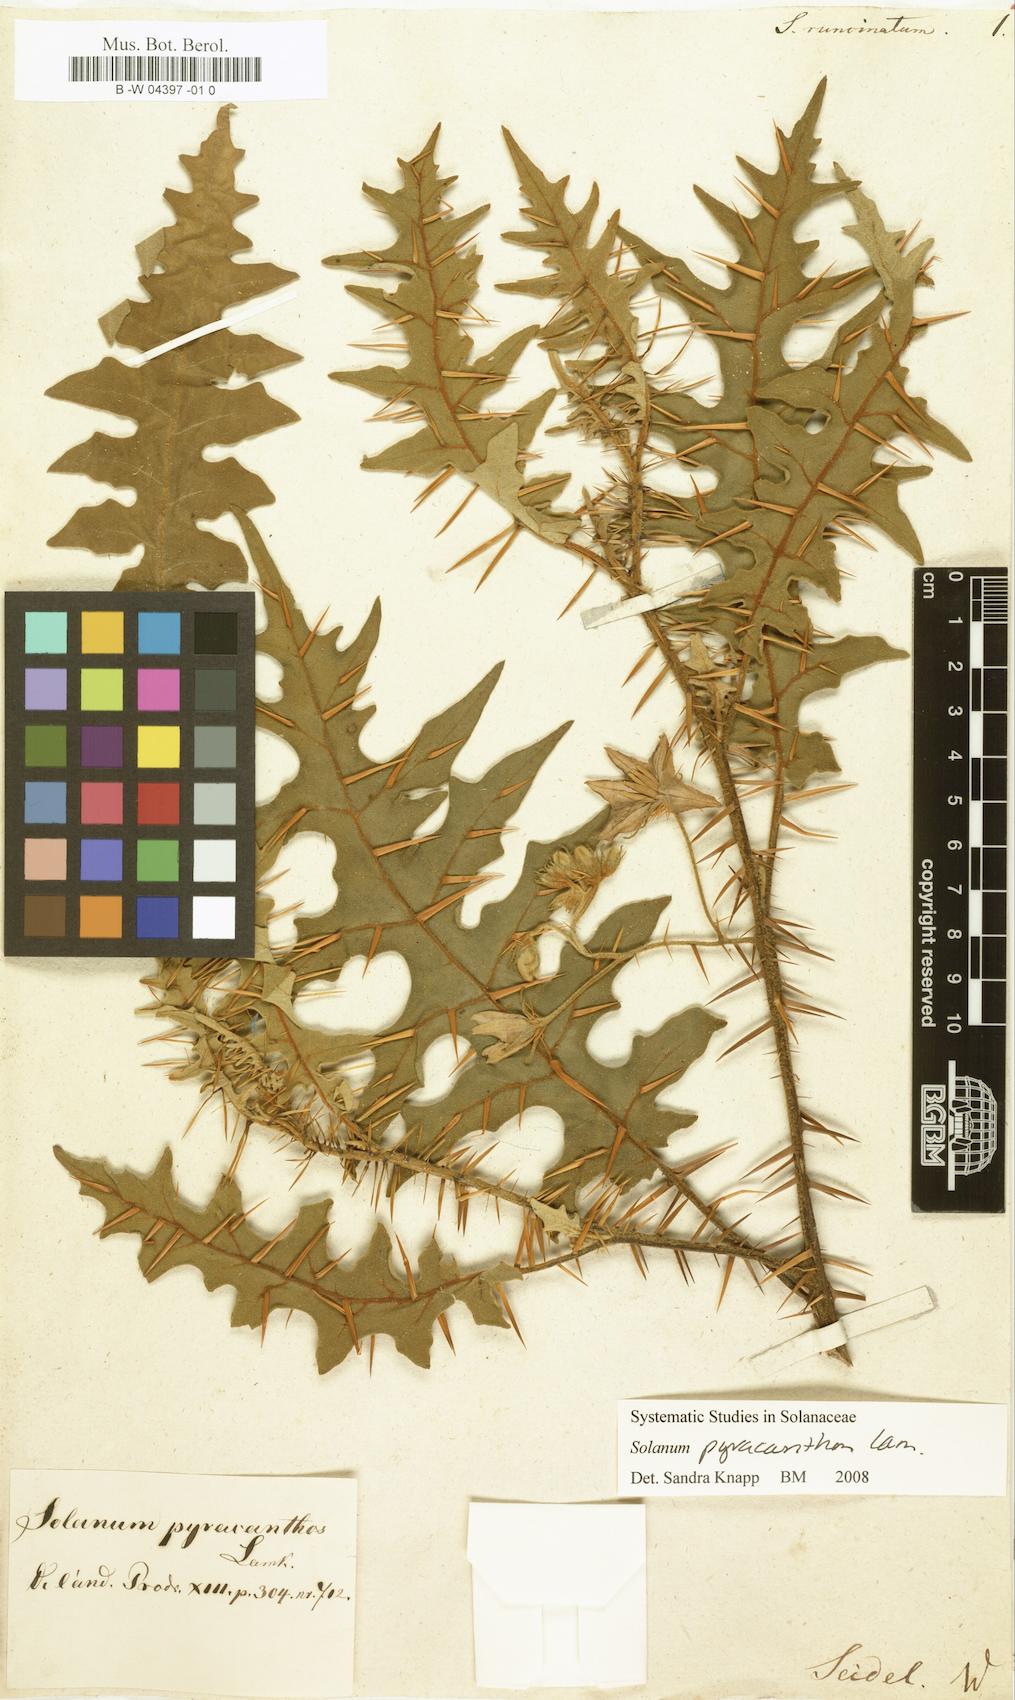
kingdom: Plantae
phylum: Tracheophyta
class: Magnoliopsida
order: Solanales
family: Solanaceae
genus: Solanum
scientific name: Solanum
